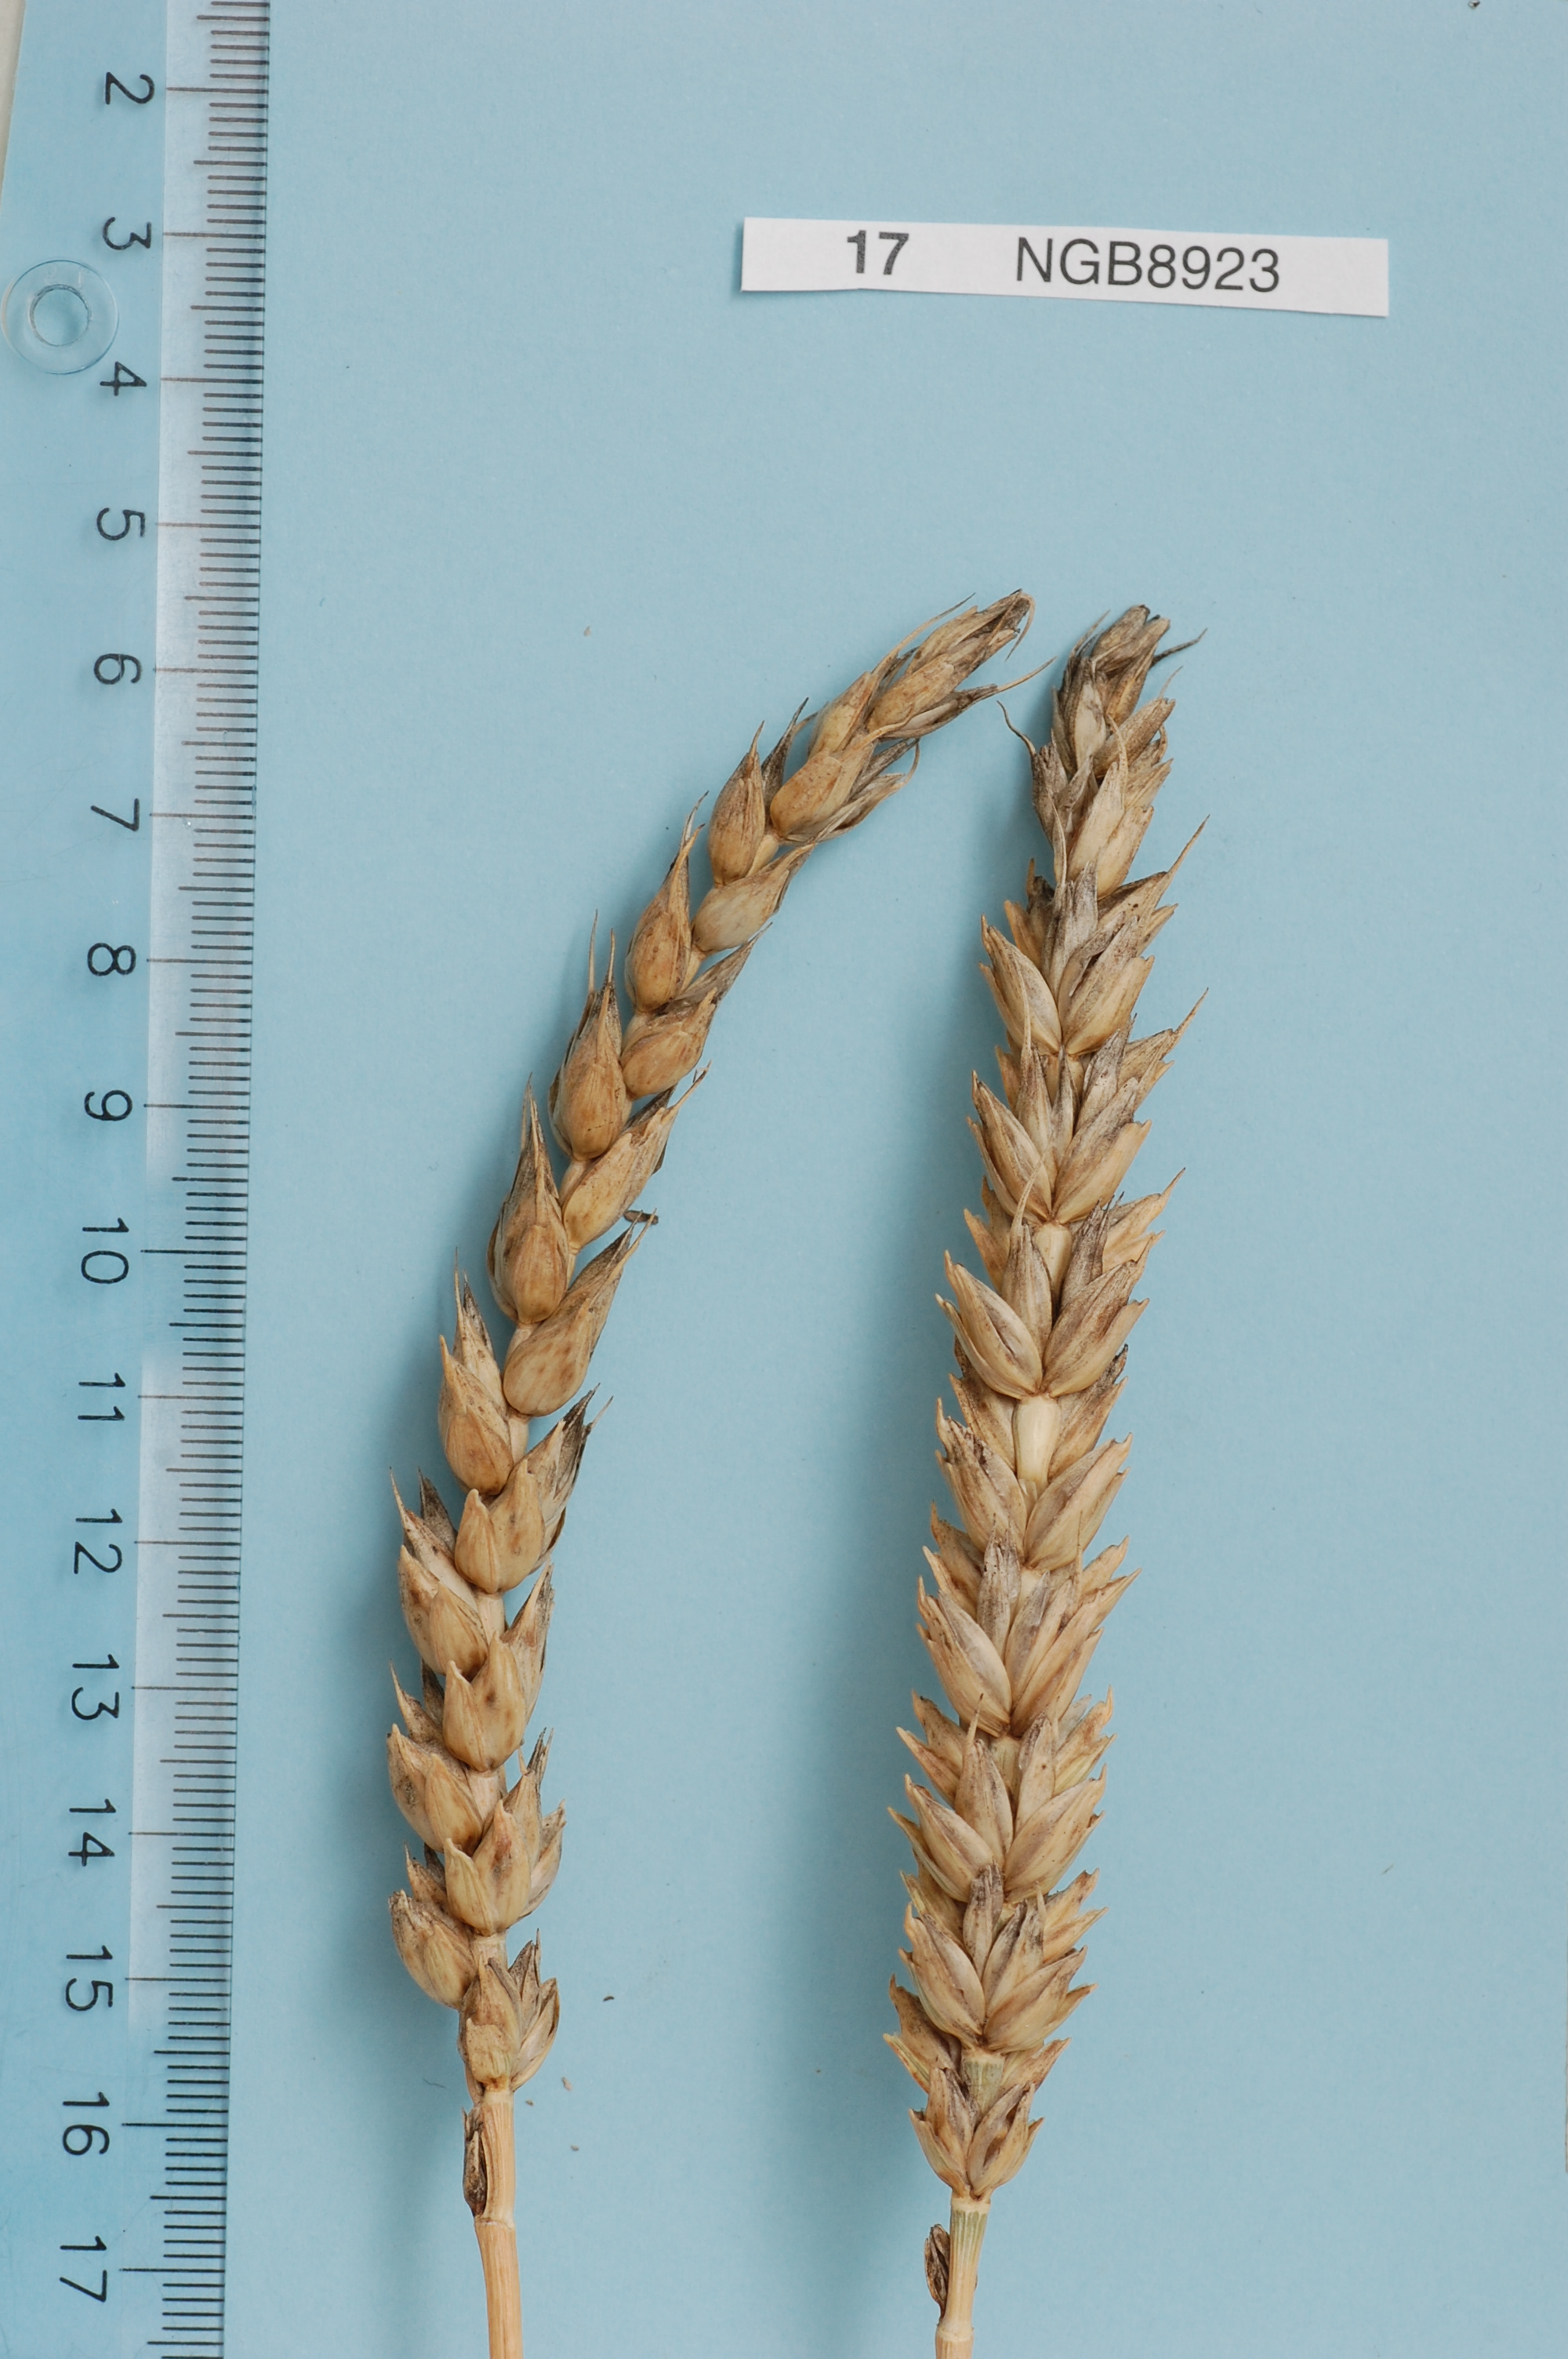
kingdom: Plantae
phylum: Tracheophyta
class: Liliopsida
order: Poales
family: Poaceae
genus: Triticum
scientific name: Triticum aestivum
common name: Common wheat
